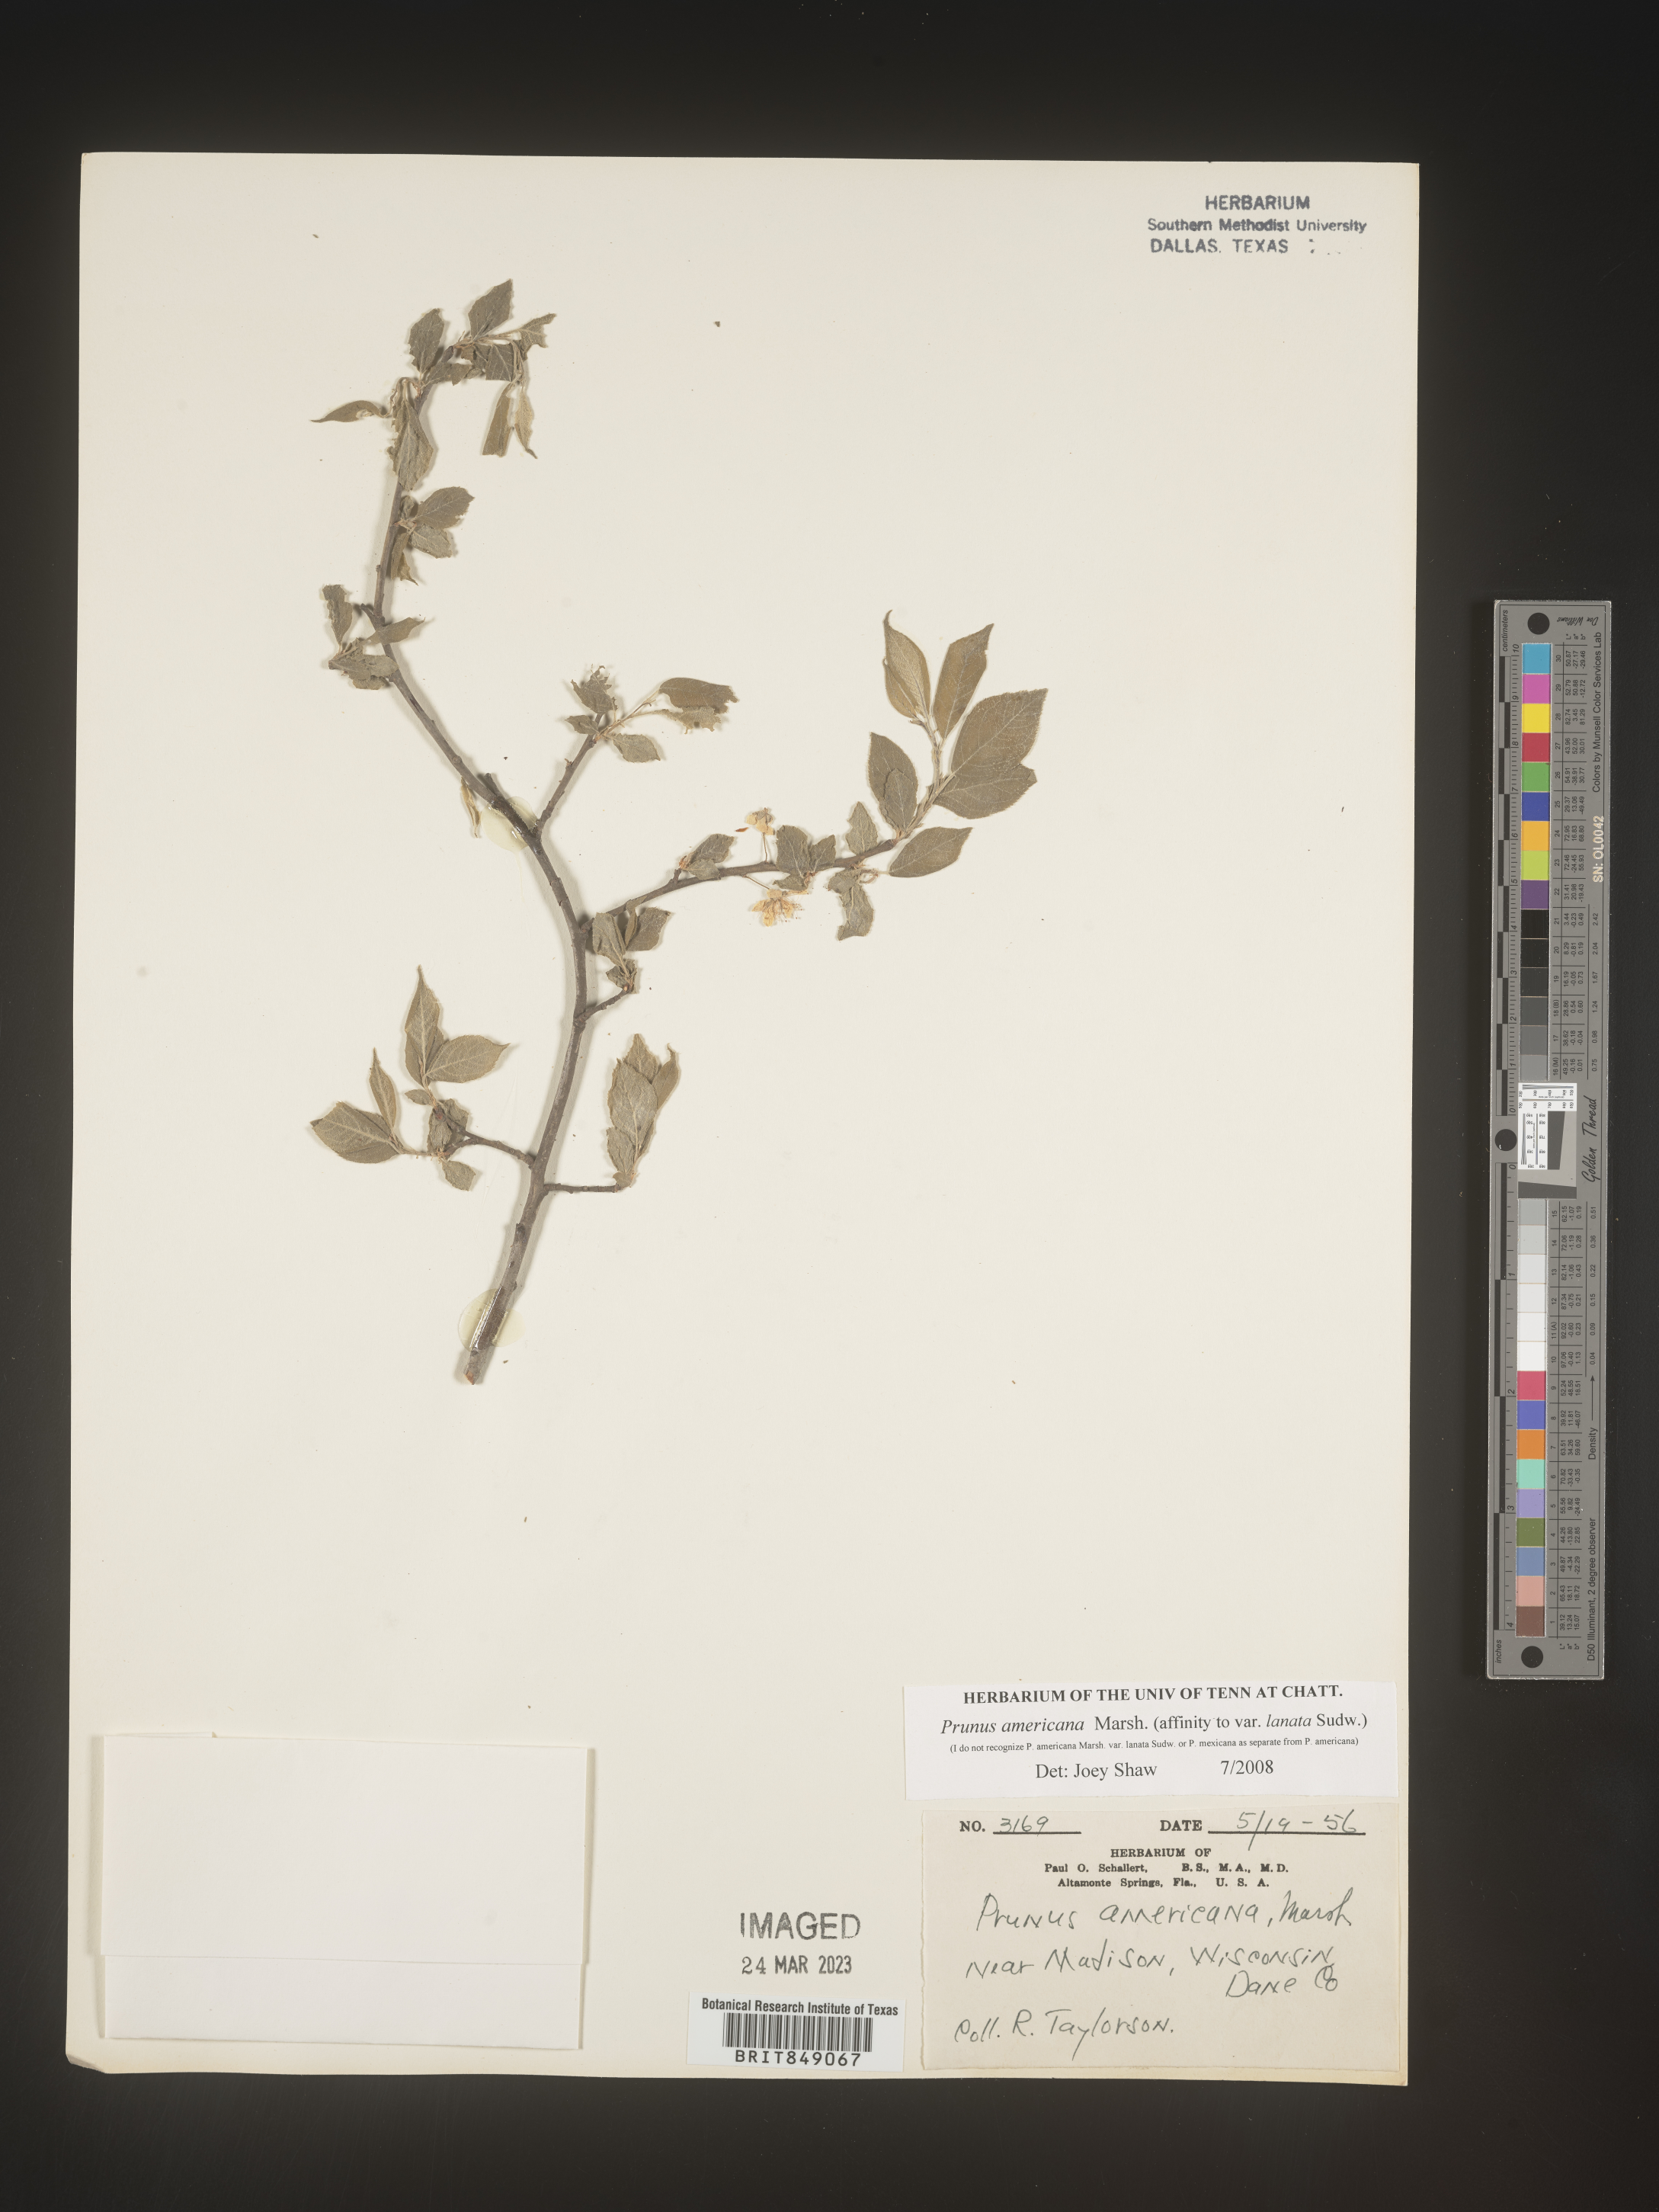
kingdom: Plantae
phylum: Tracheophyta
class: Magnoliopsida
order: Rosales
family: Rosaceae
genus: Prunus
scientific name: Prunus americana
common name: American plum
